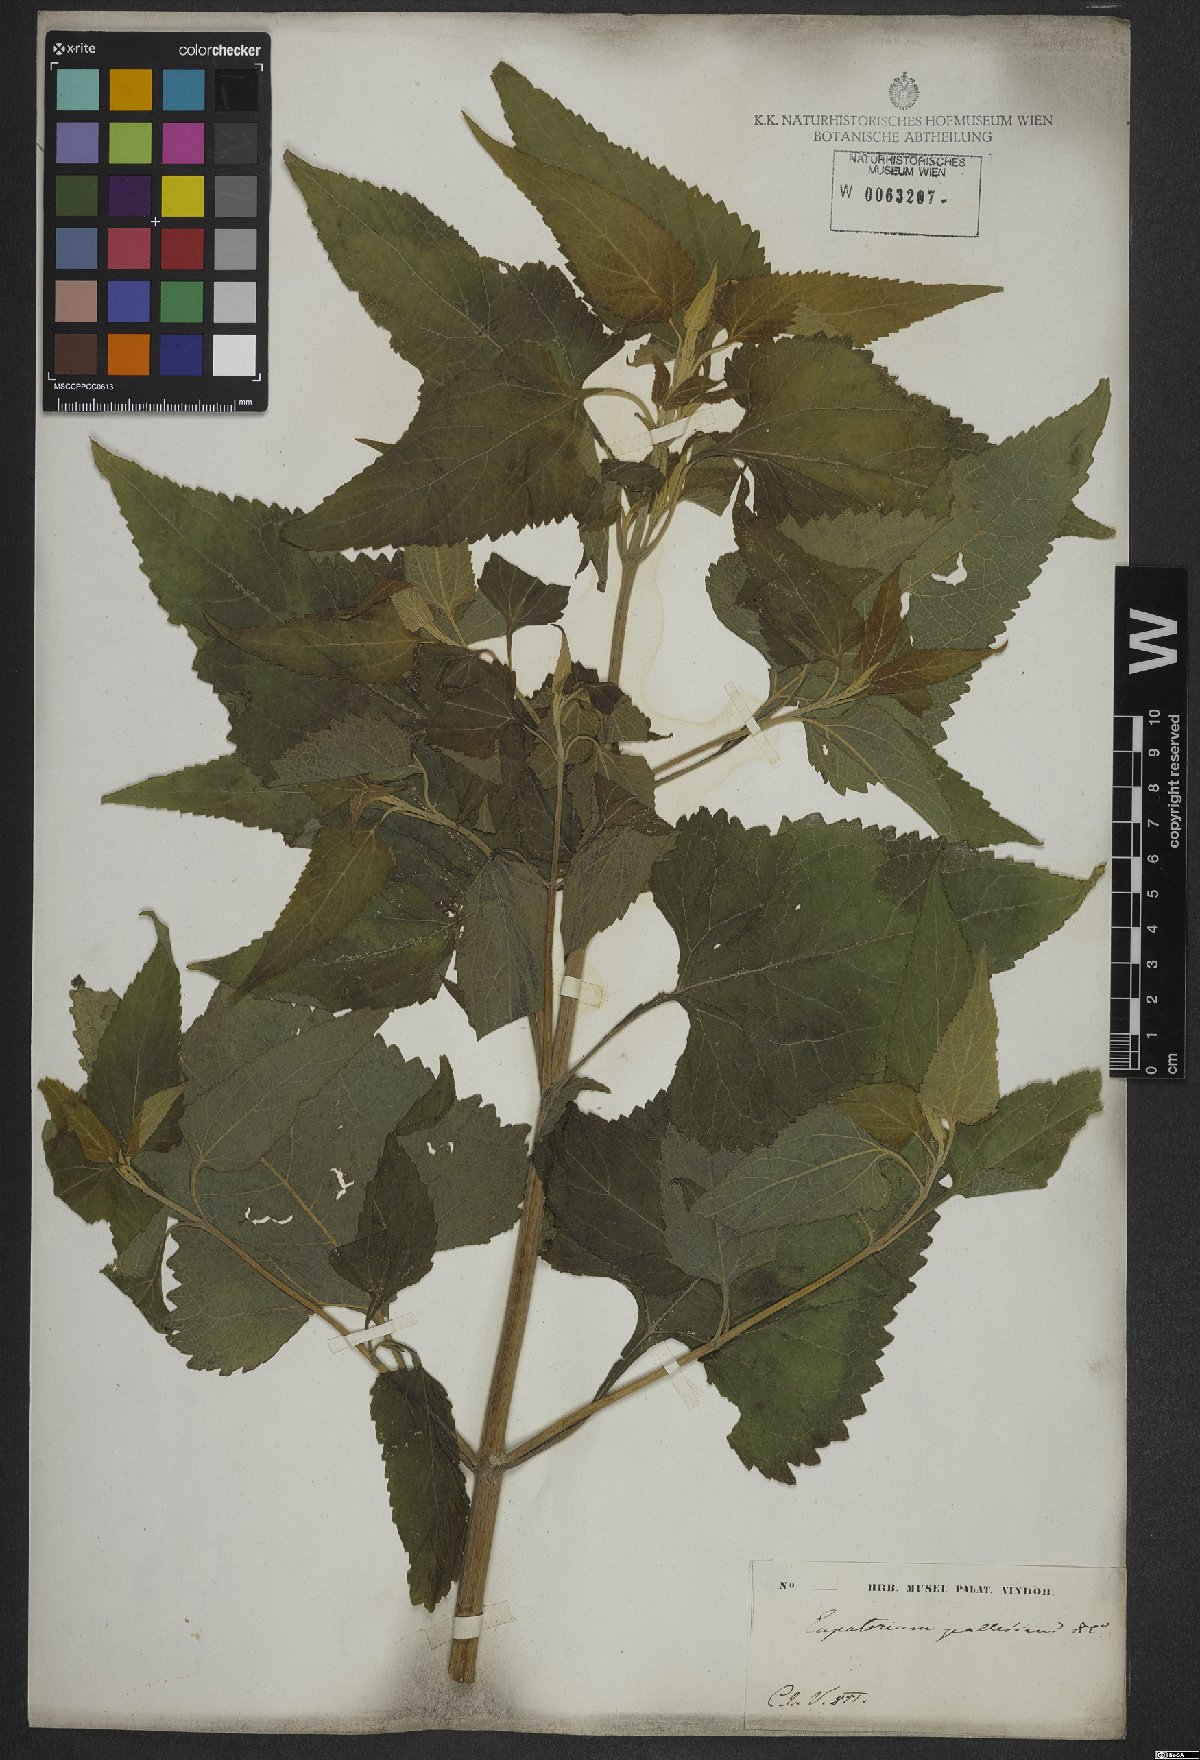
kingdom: Plantae
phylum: Tracheophyta
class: Magnoliopsida
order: Asterales
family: Asteraceae
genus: Austroeupatorium
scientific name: Austroeupatorium inulifolium
